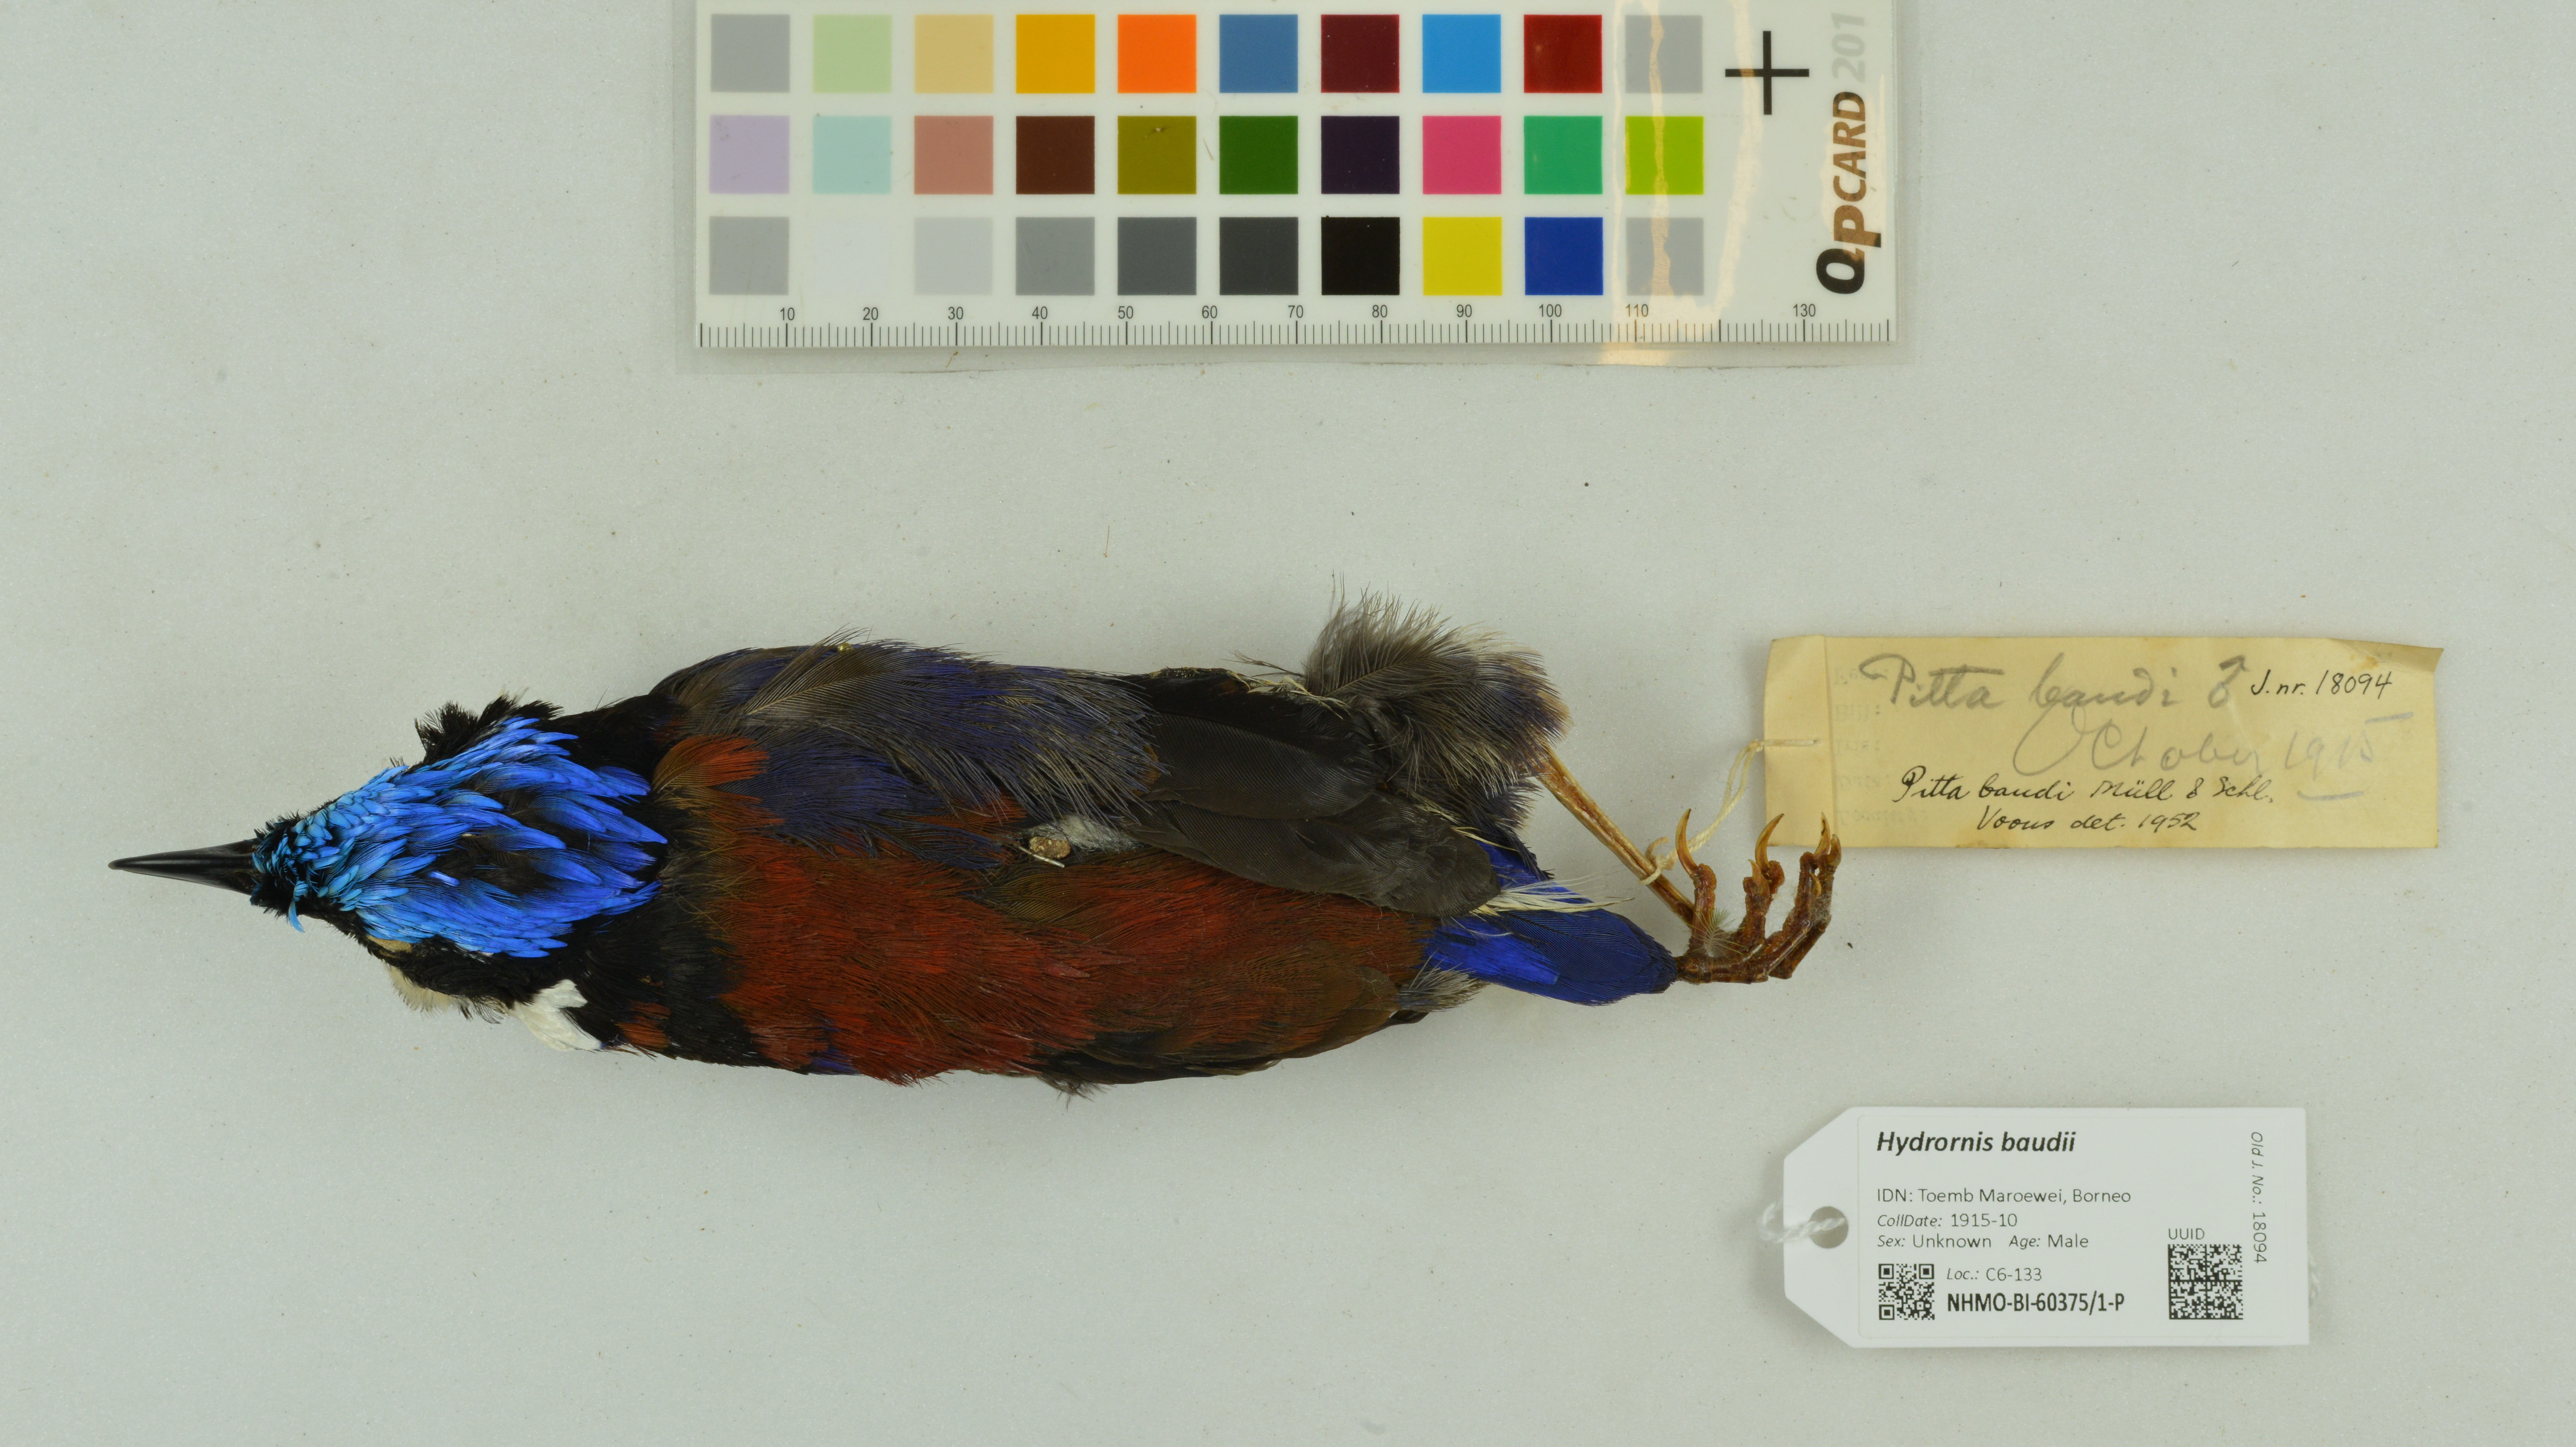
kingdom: Animalia
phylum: Chordata
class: Aves
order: Passeriformes
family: Pittidae
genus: Pitta
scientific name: Pitta baudii
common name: Blue-headed pitta
